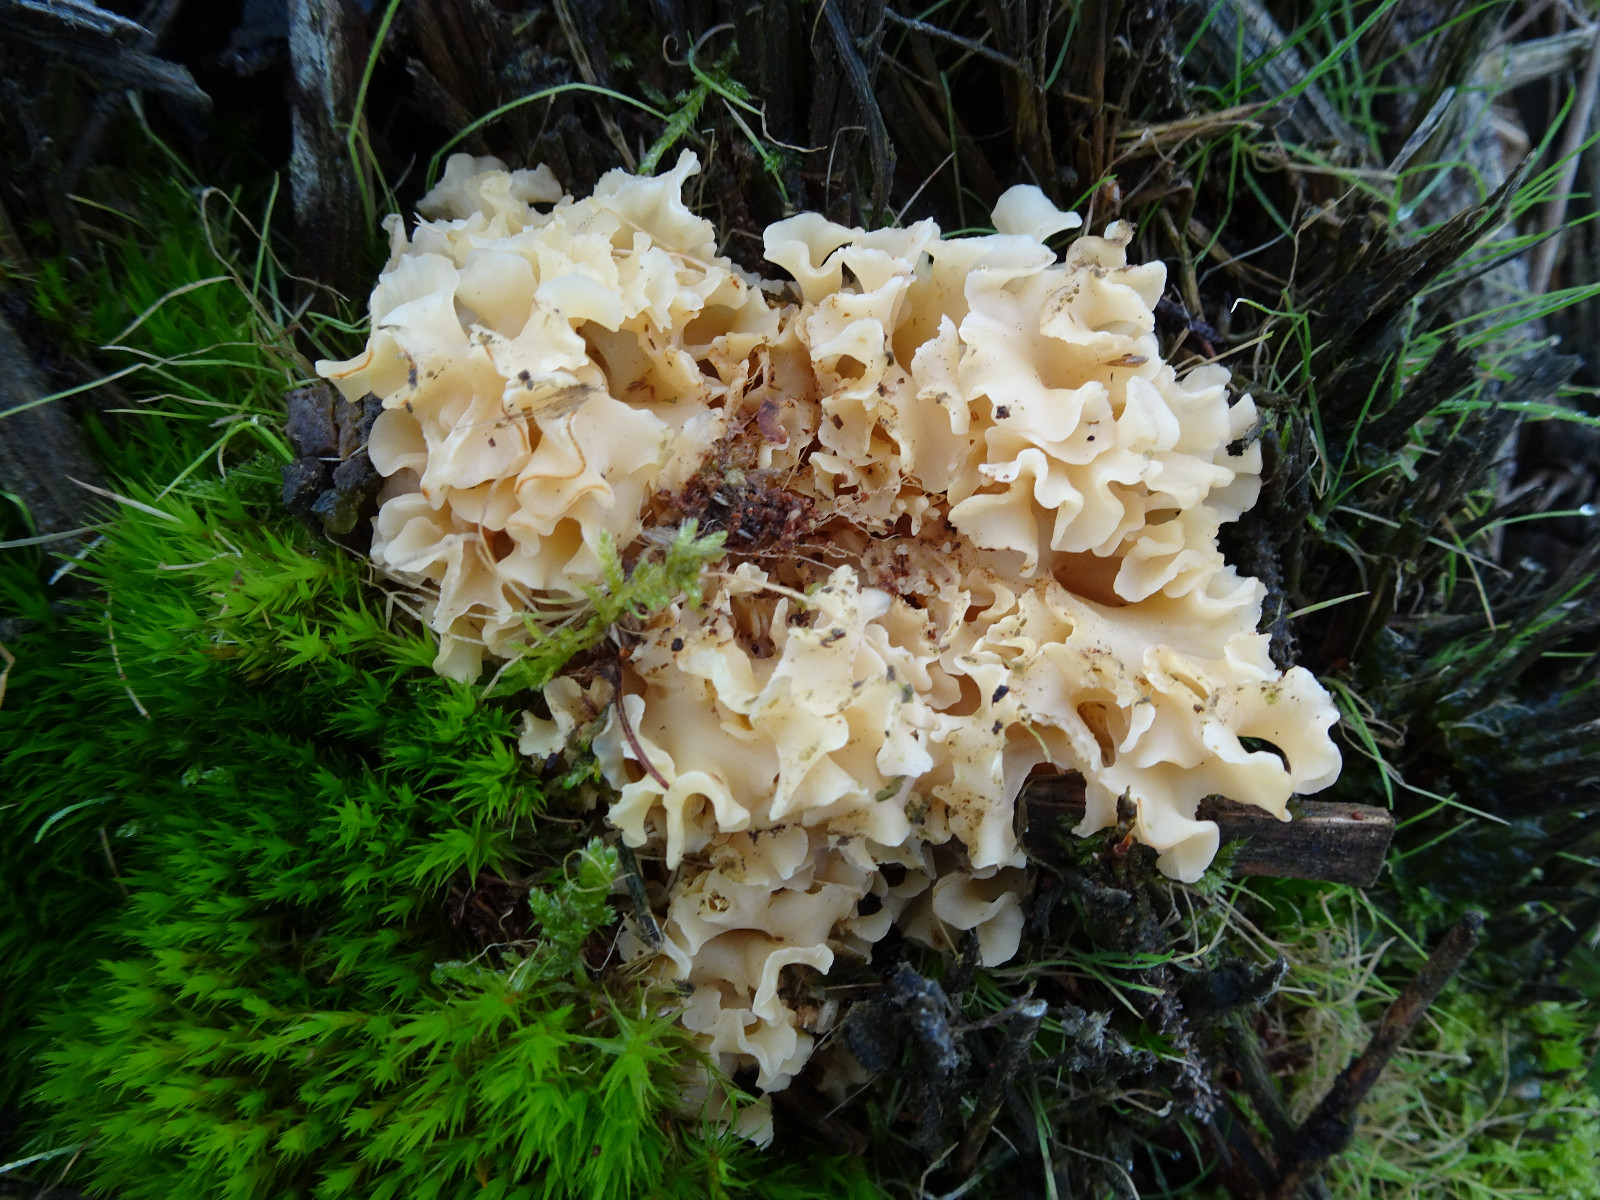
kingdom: Fungi
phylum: Basidiomycota
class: Agaricomycetes
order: Polyporales
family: Sparassidaceae
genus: Sparassis
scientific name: Sparassis crispa
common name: kruset blomkålssvamp
